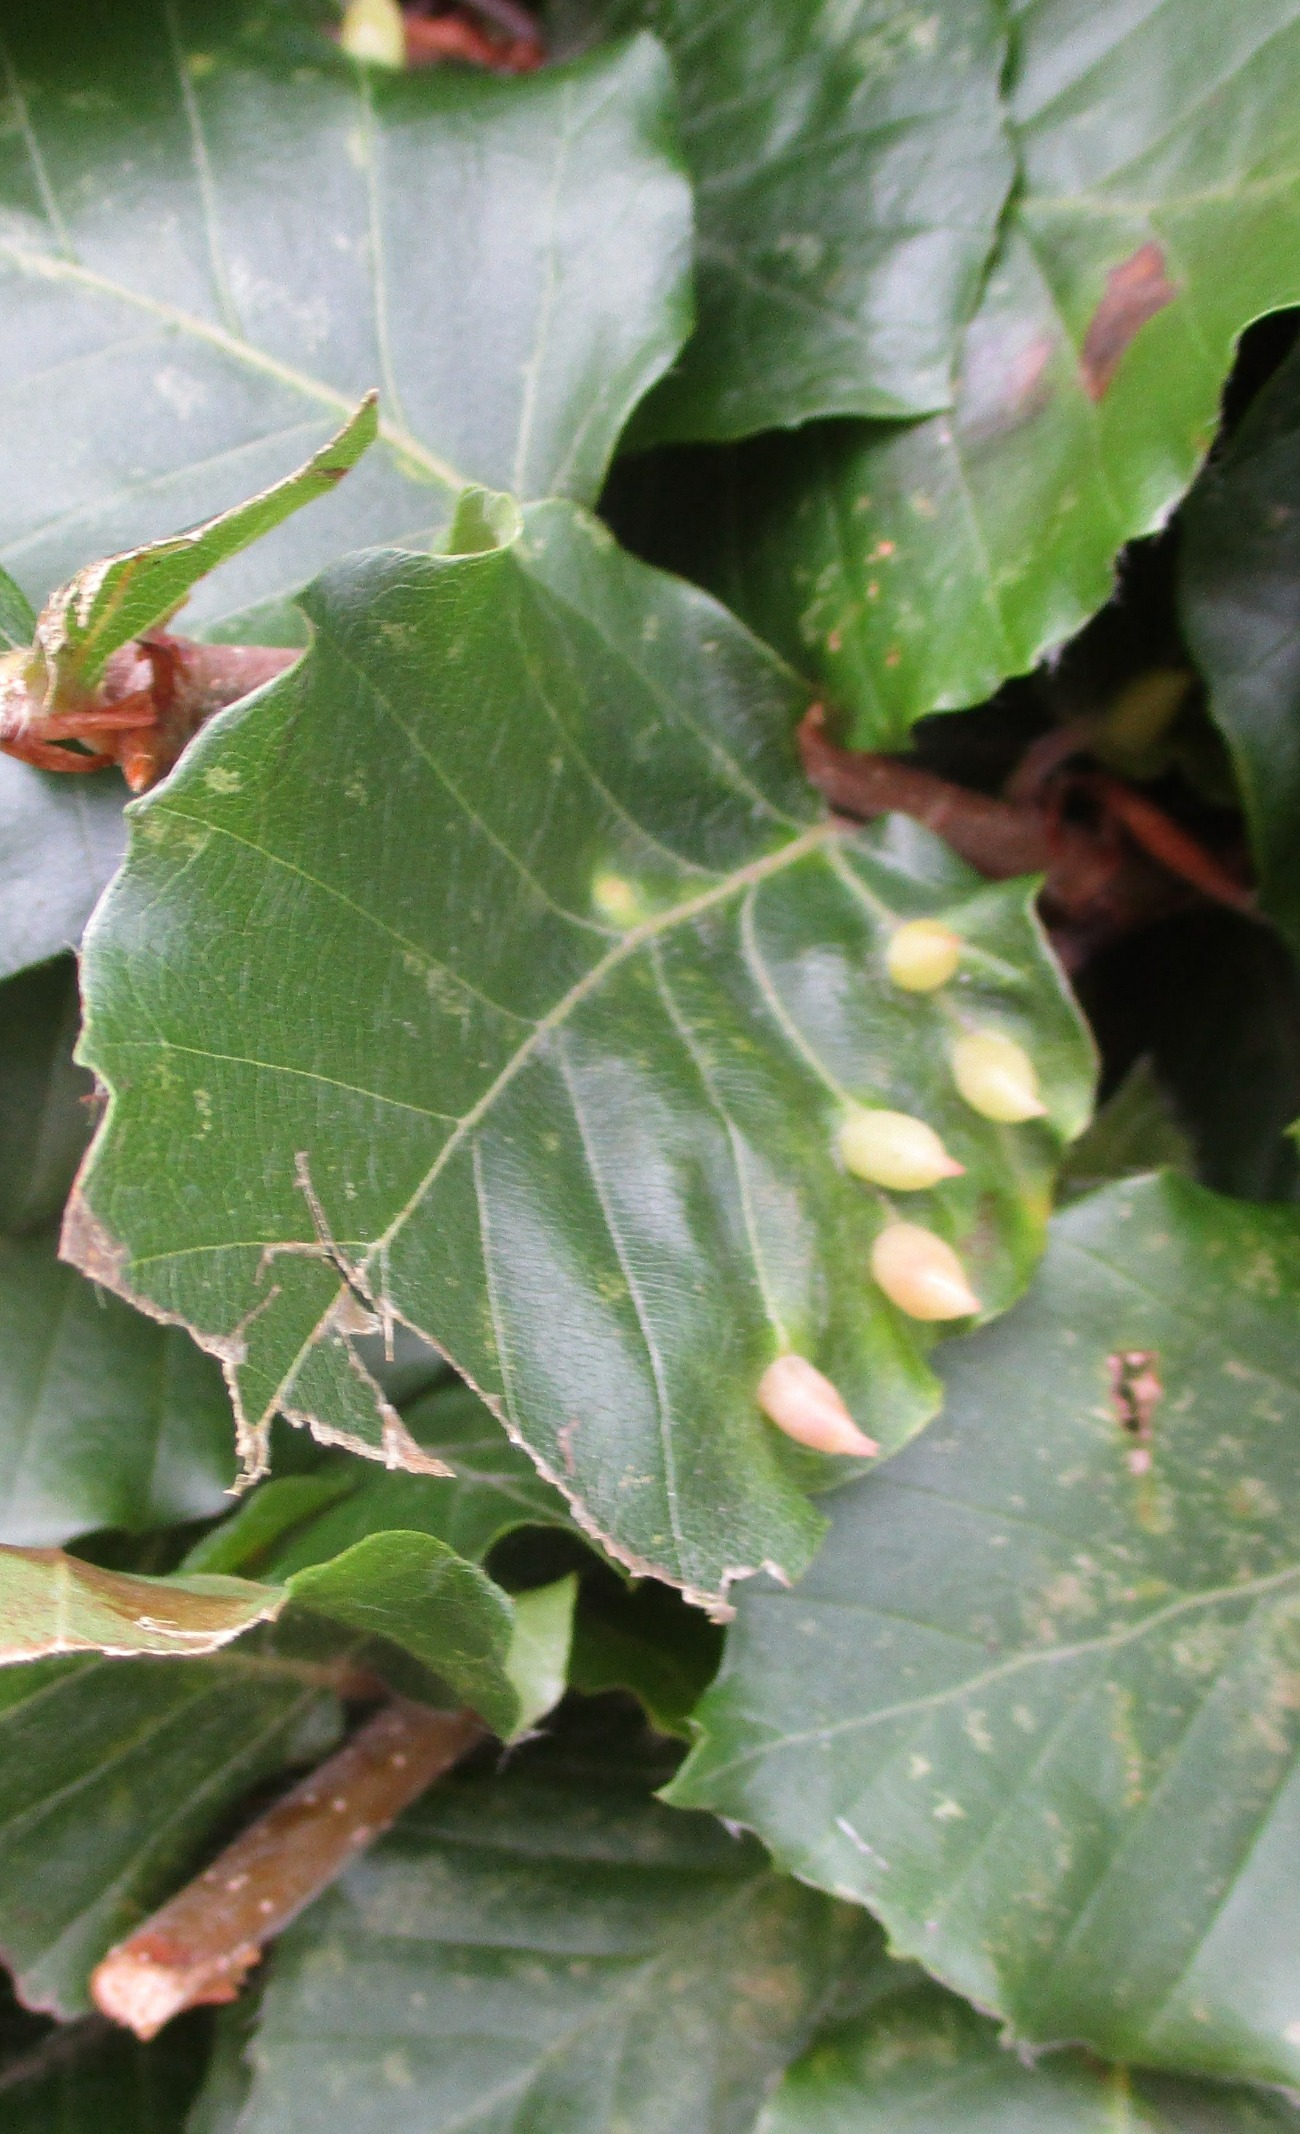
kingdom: Animalia
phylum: Arthropoda
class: Insecta
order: Diptera
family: Cecidomyiidae
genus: Mikiola
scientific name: Mikiola fagi
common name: Bøgegalmyg
